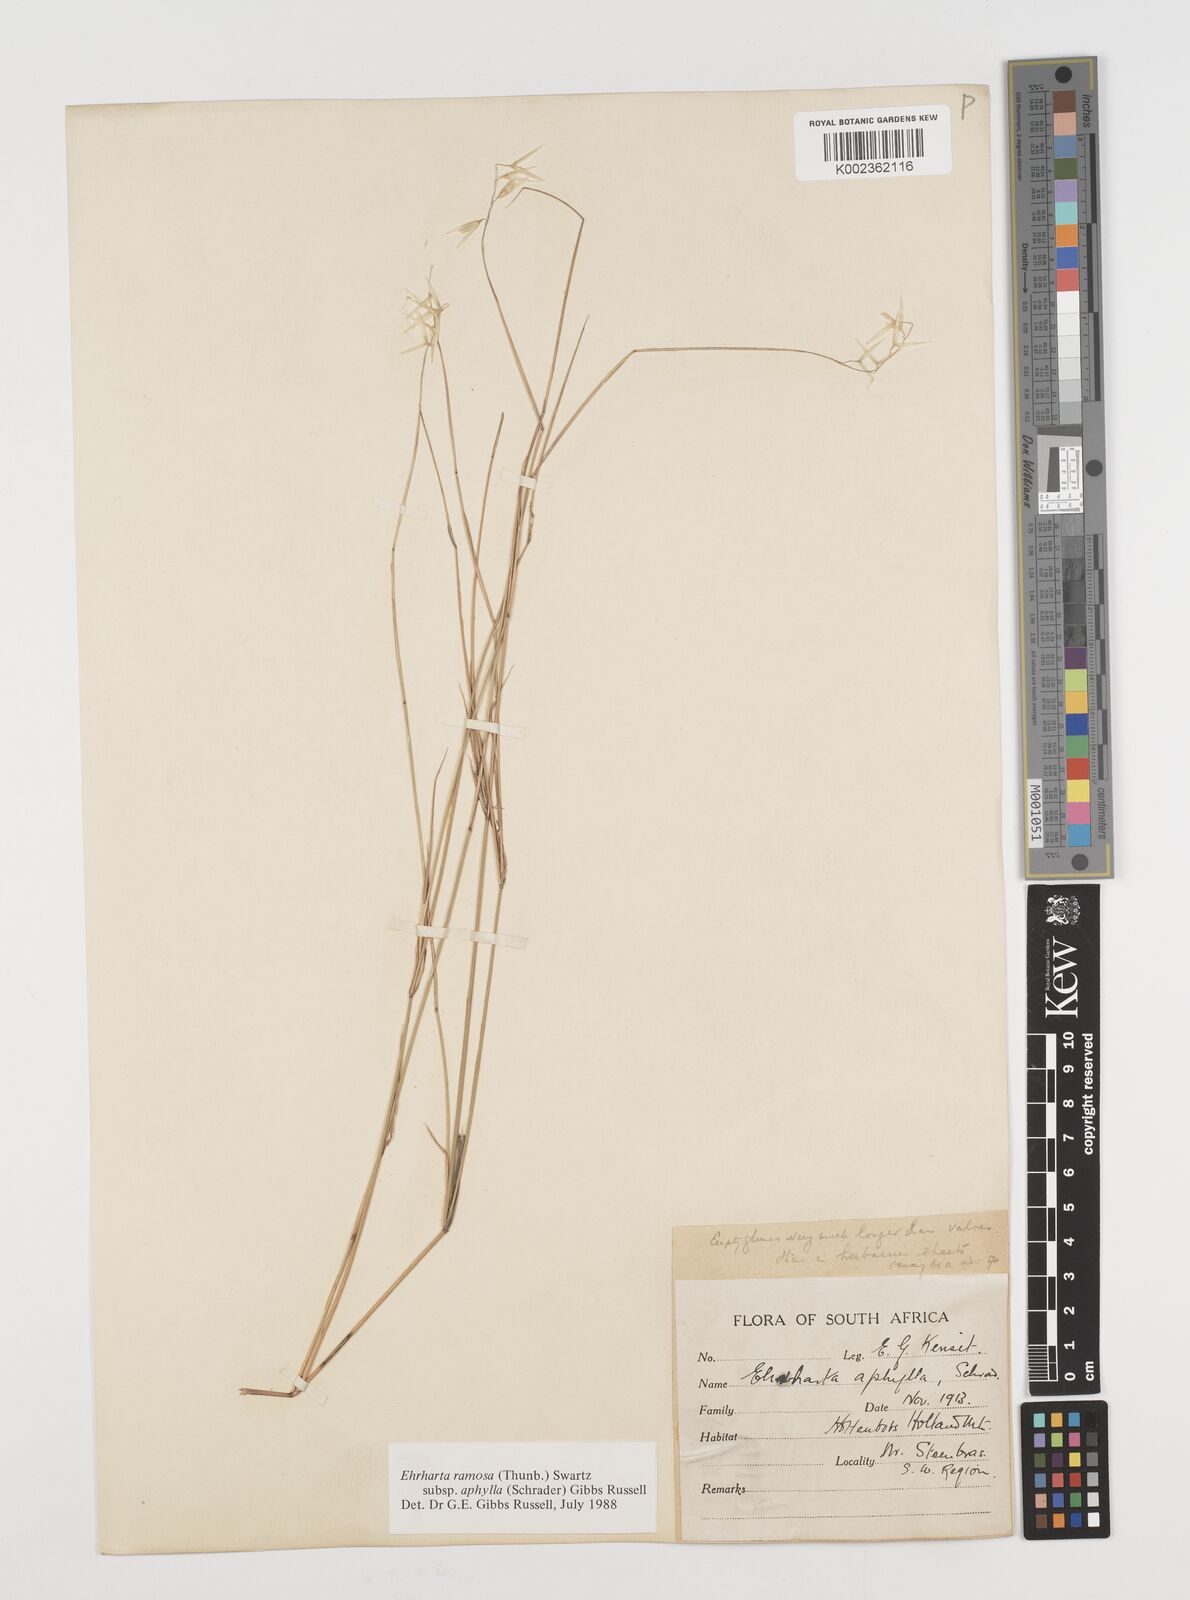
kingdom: Plantae
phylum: Tracheophyta
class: Liliopsida
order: Poales
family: Poaceae
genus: Ehrharta
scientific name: Ehrharta digyna
